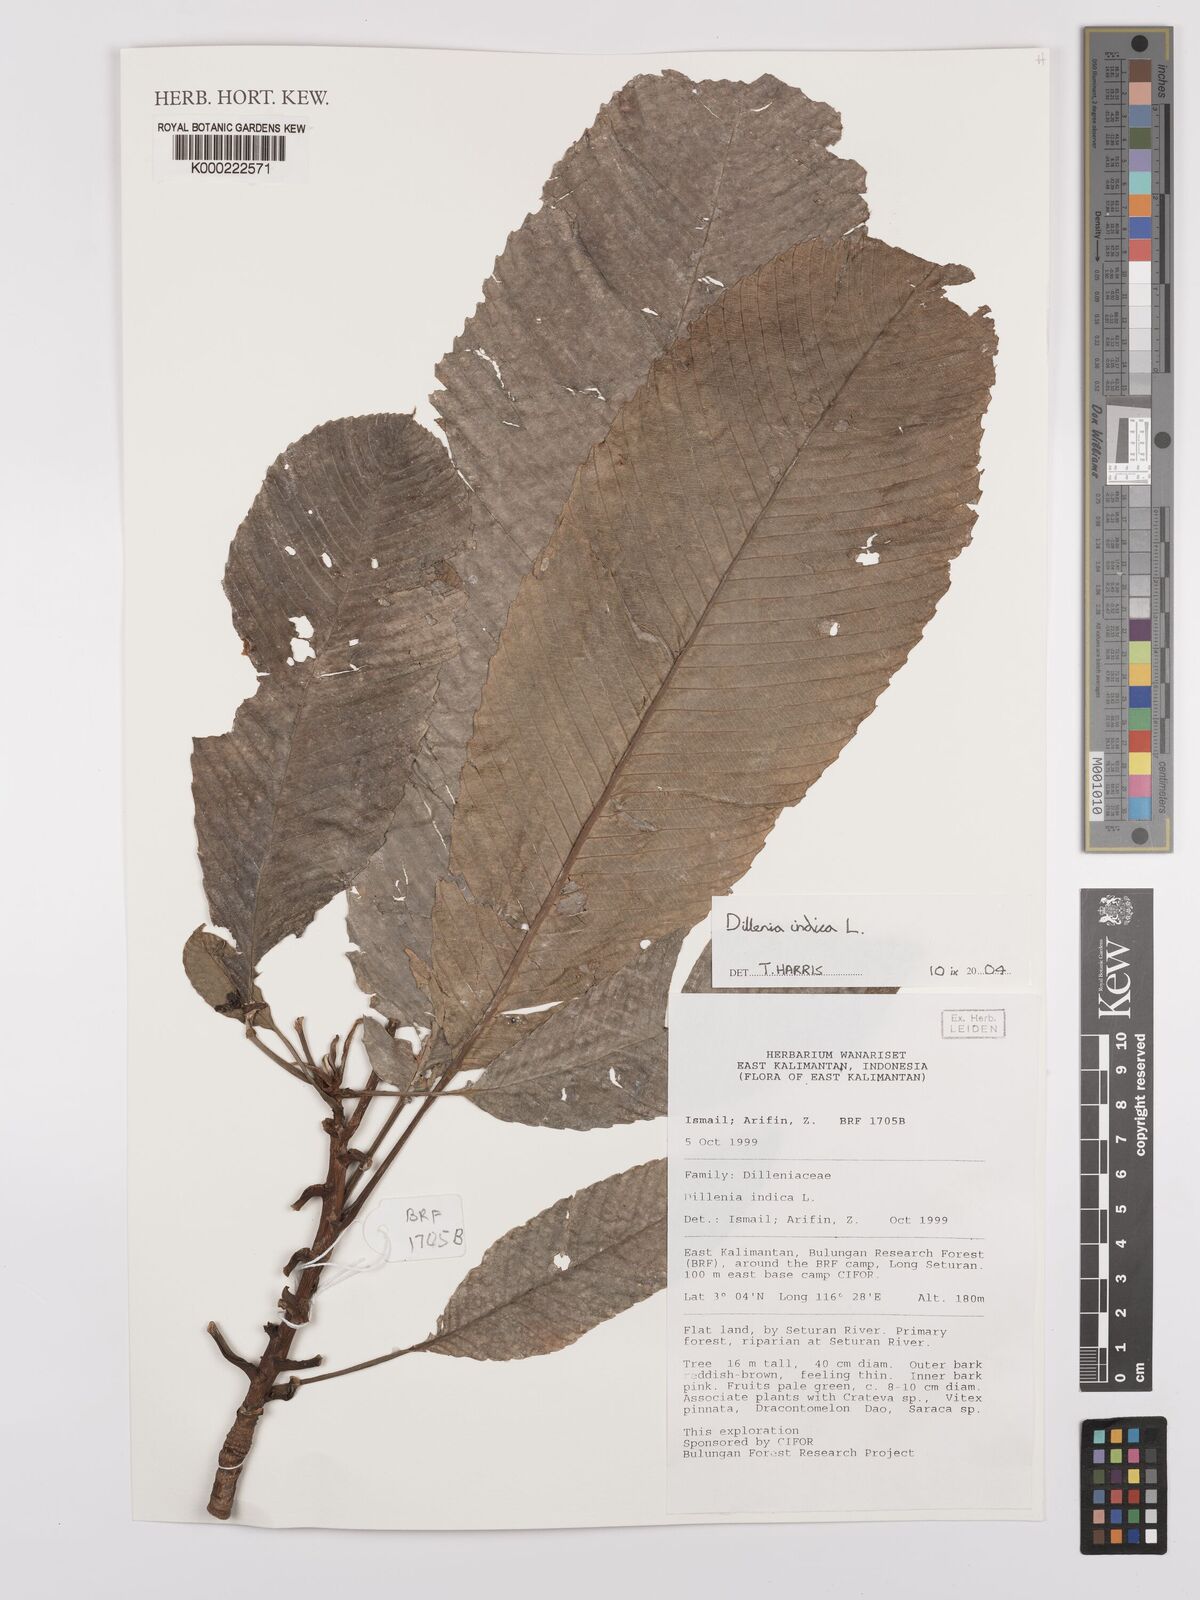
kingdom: Plantae
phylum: Tracheophyta
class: Magnoliopsida
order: Dilleniales
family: Dilleniaceae
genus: Dillenia
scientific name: Dillenia indica
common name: Elephant apple
